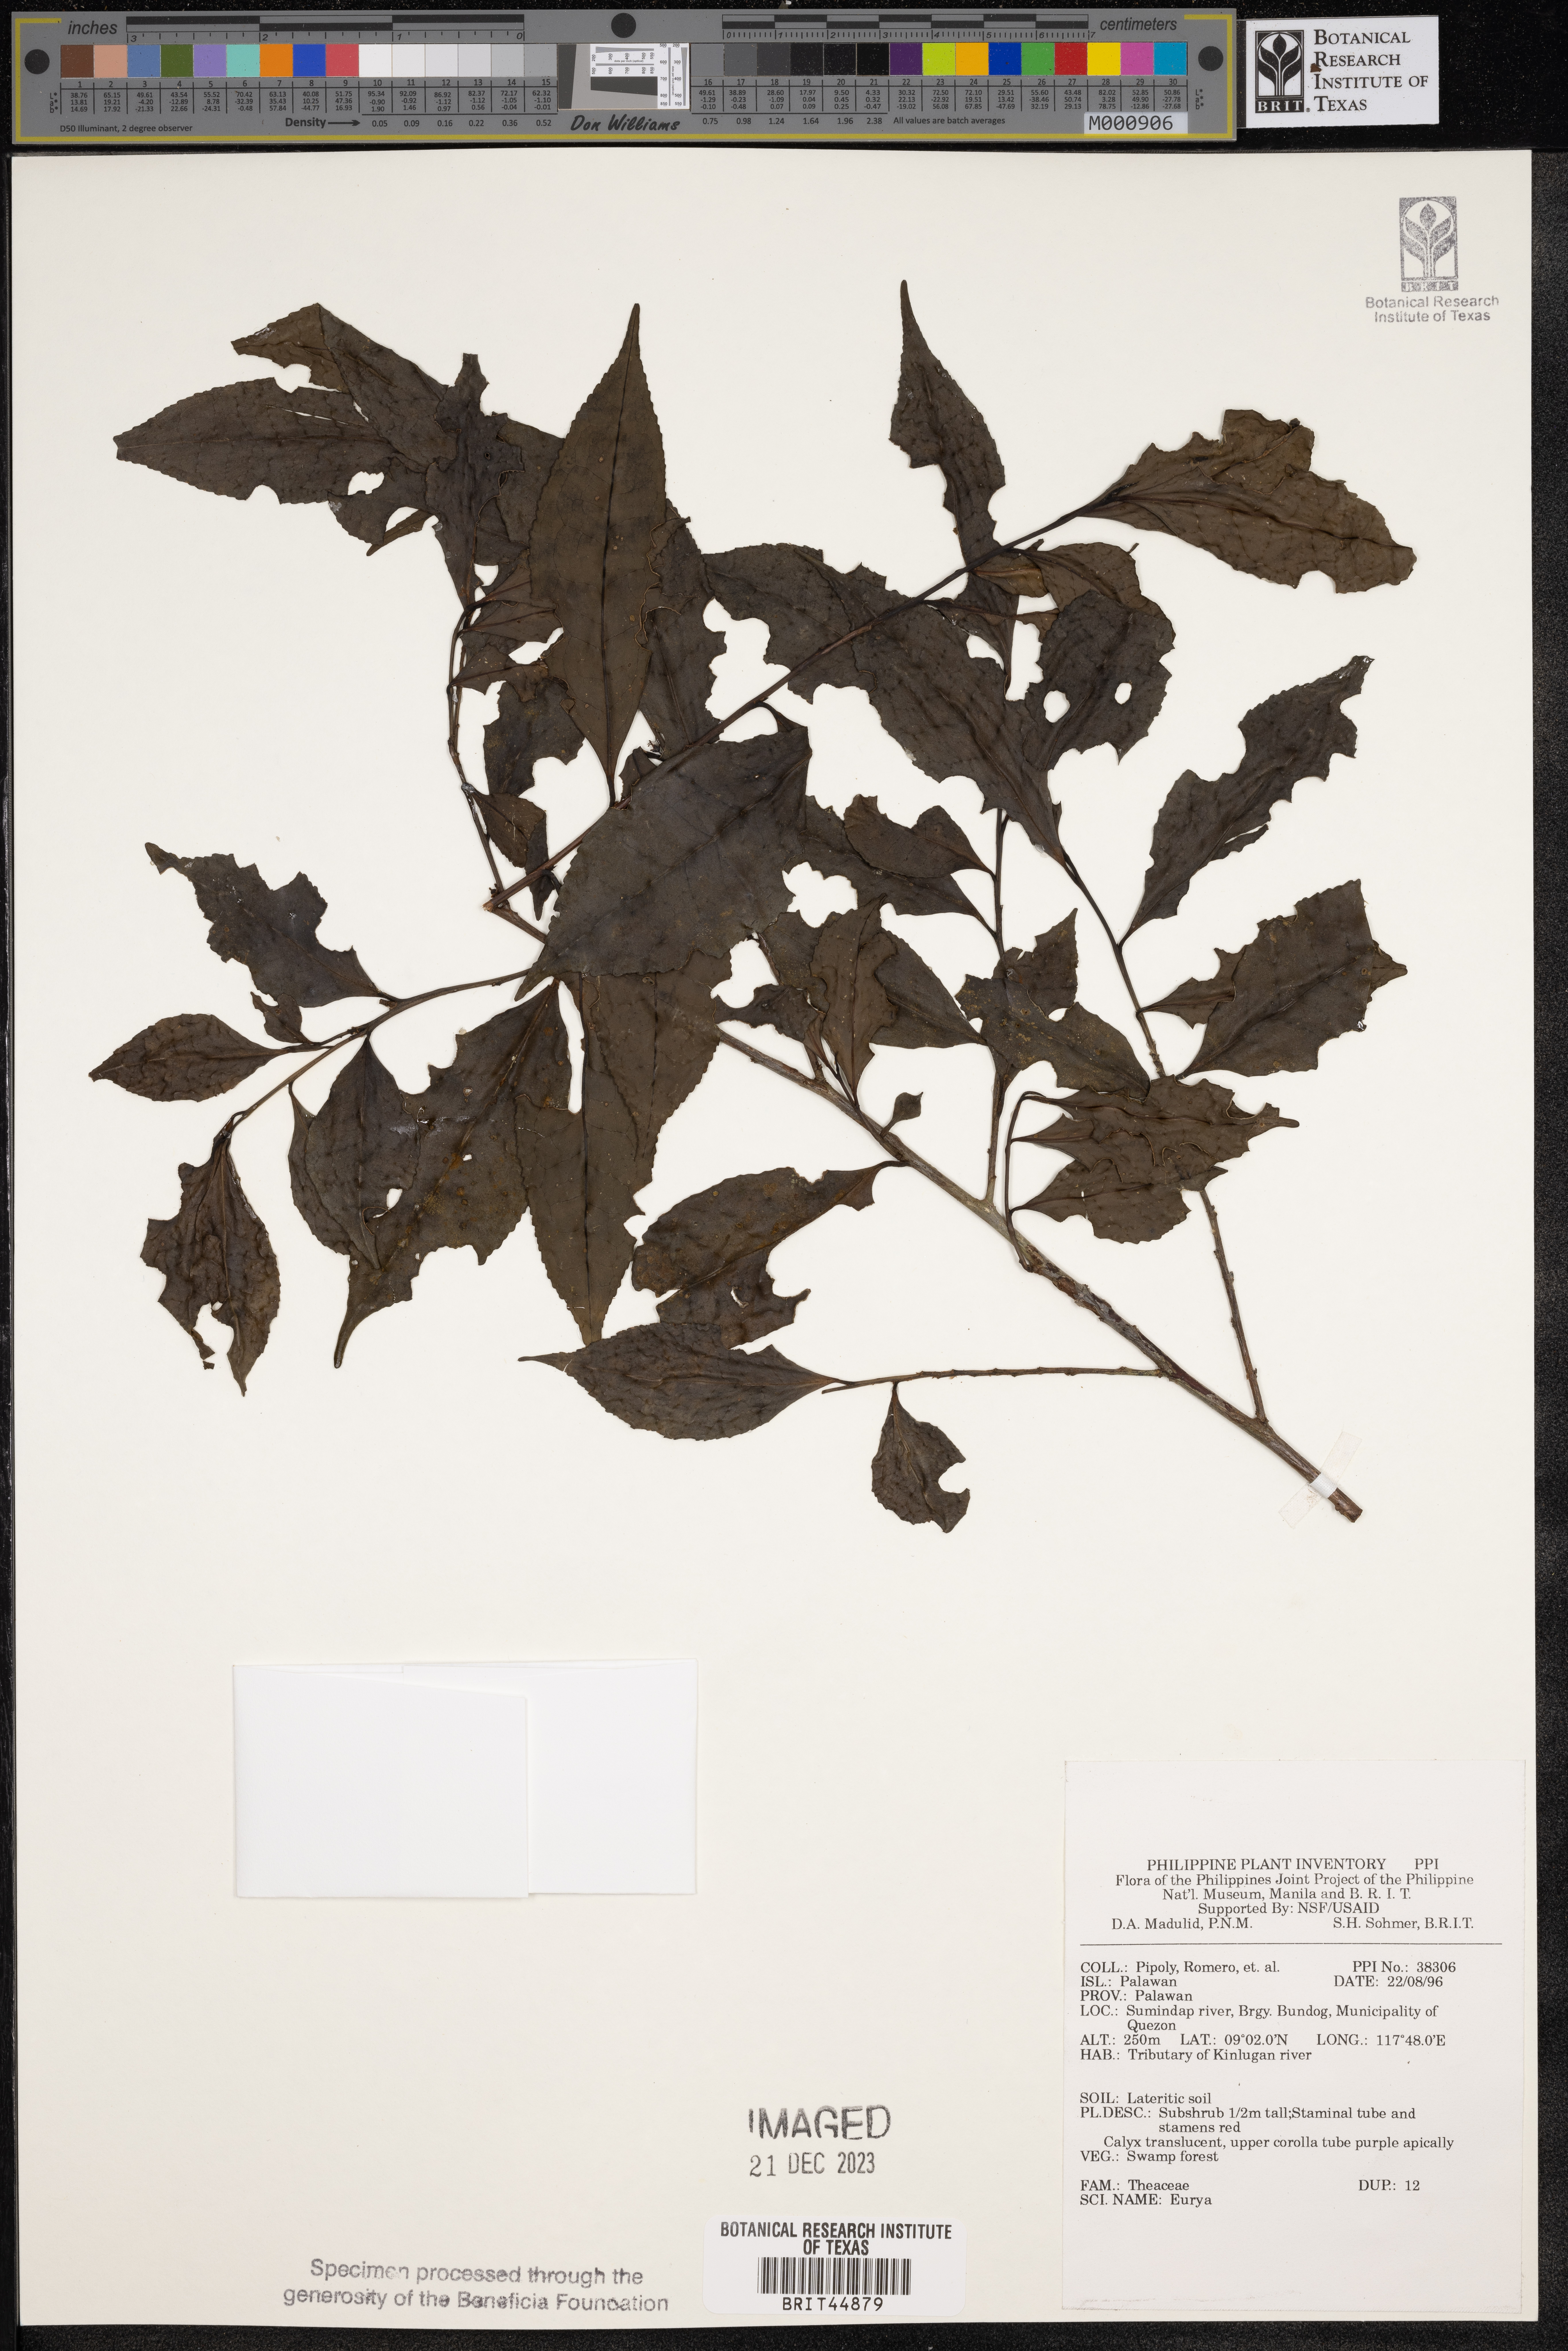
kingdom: Plantae
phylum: Tracheophyta
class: Magnoliopsida
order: Ericales
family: Pentaphylacaceae
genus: Eurya
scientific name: Eurya
